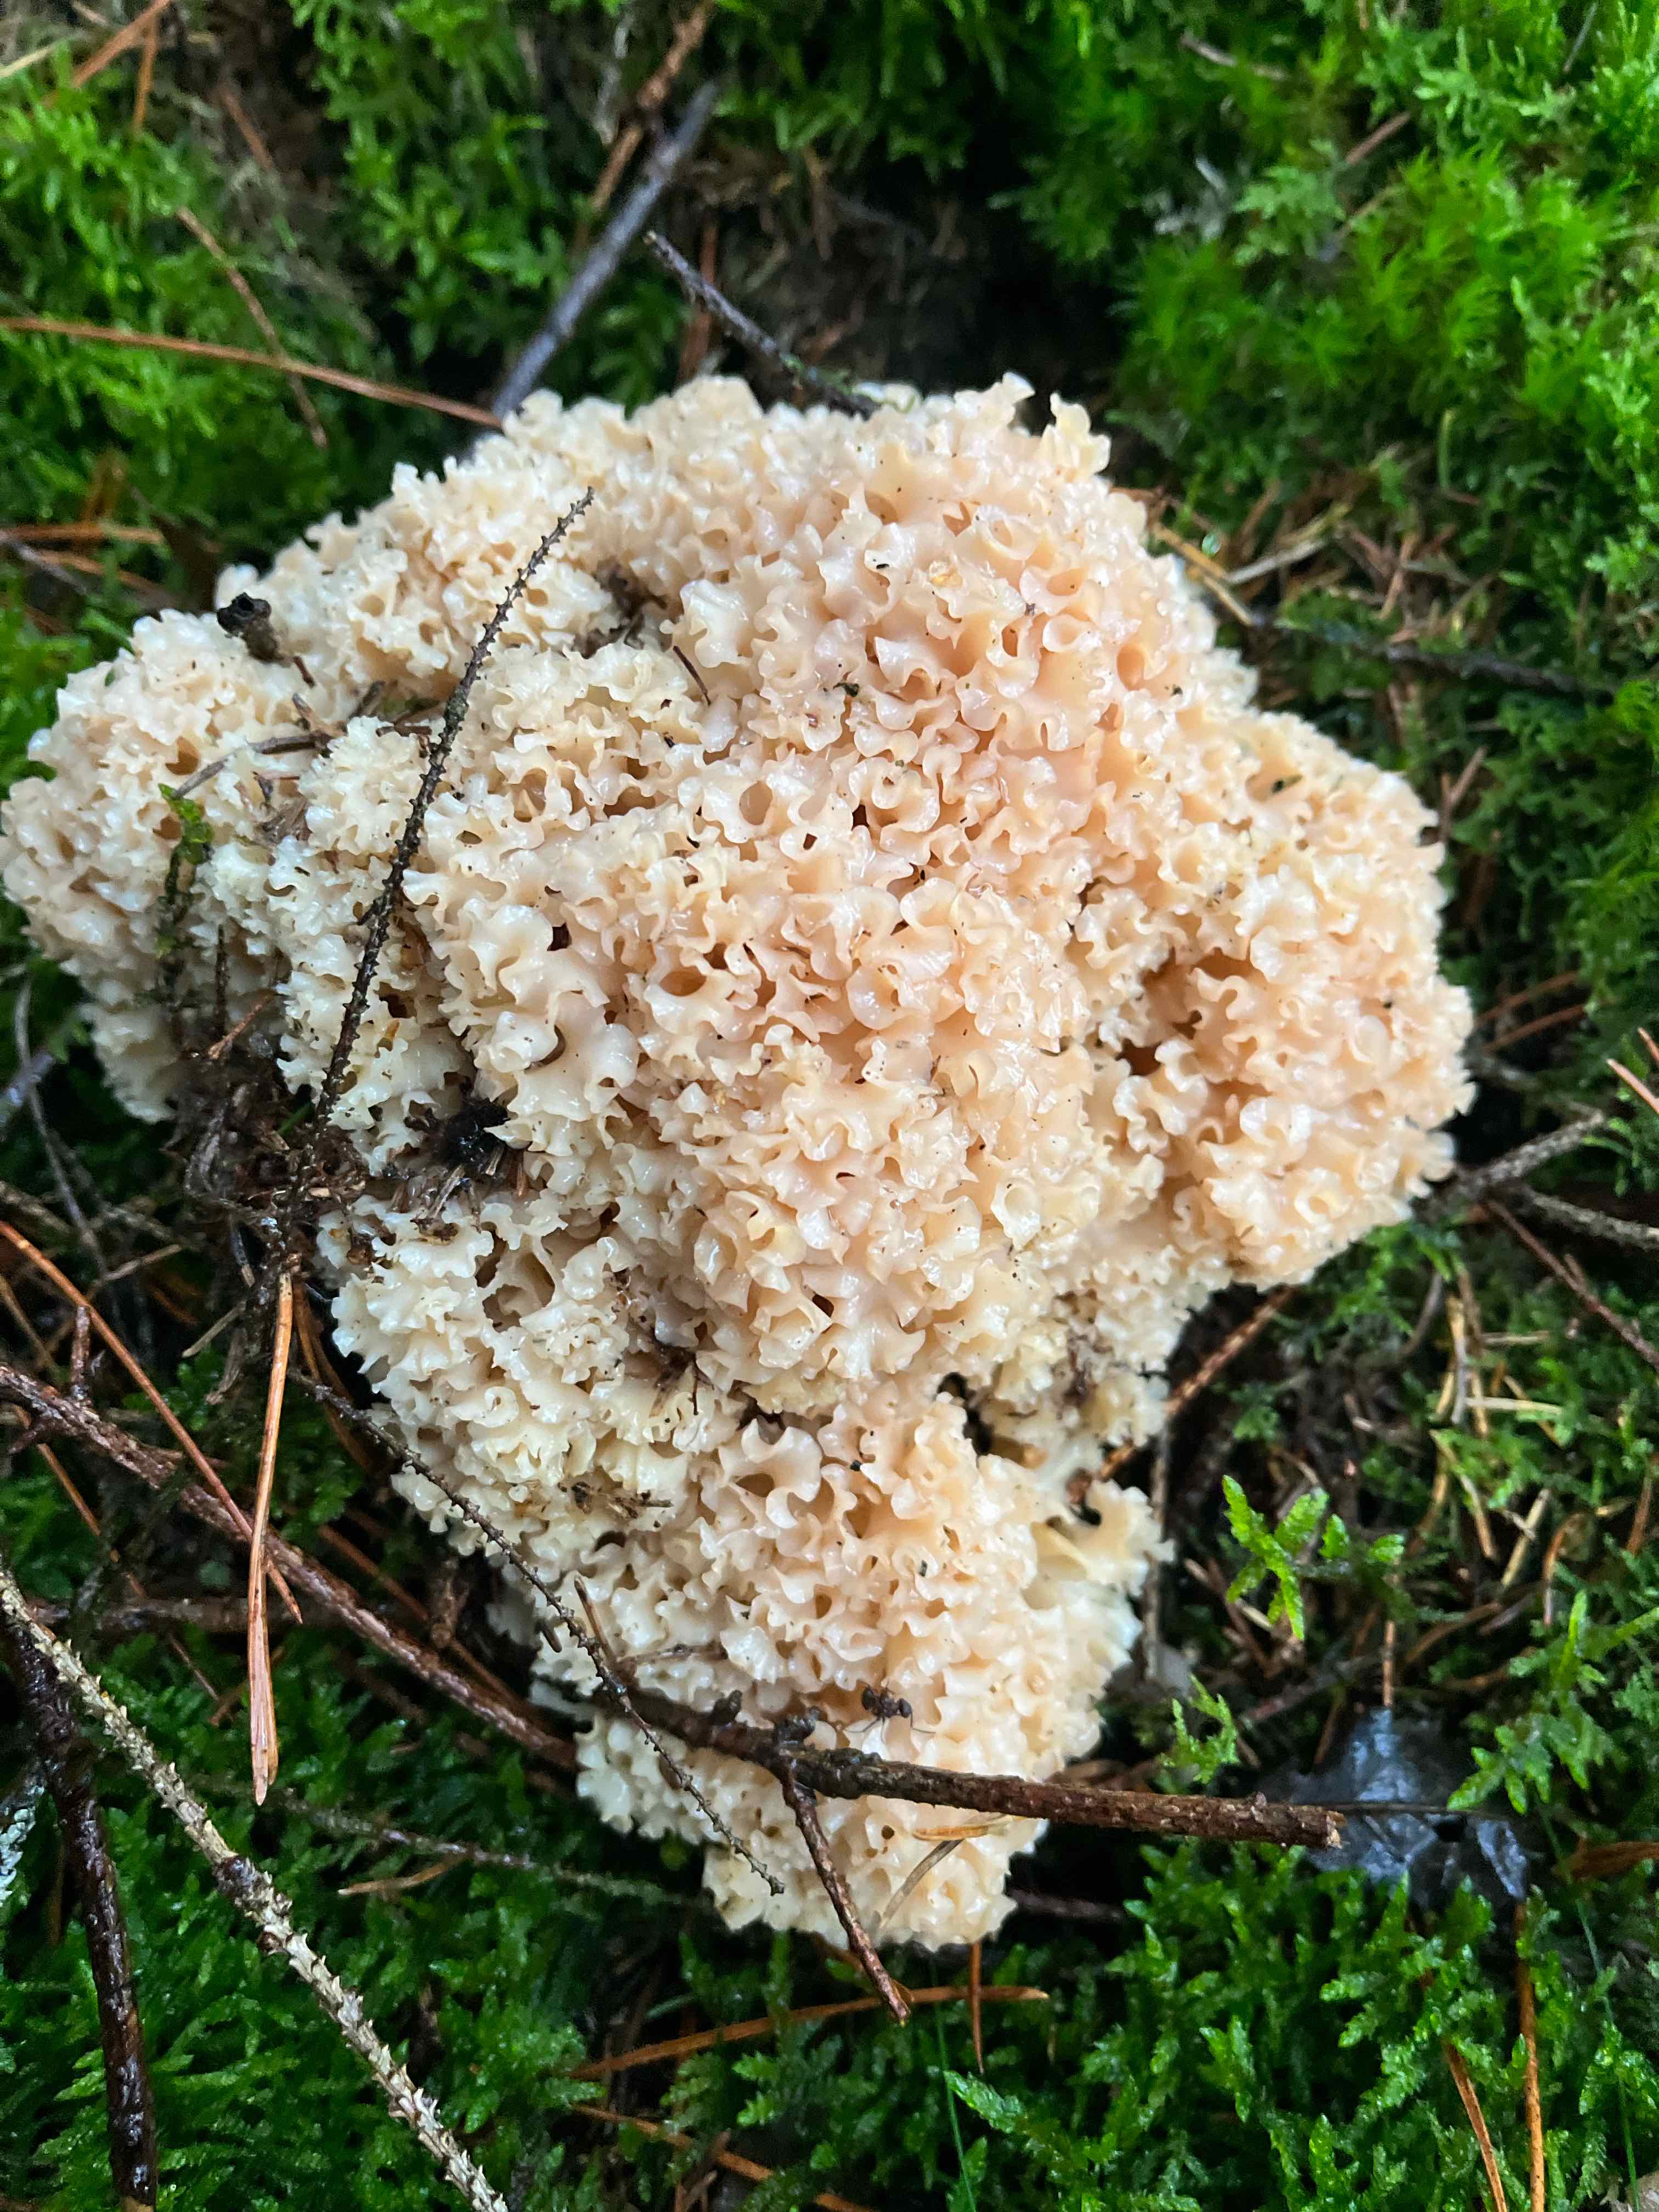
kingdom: Fungi
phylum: Basidiomycota
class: Agaricomycetes
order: Polyporales
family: Sparassidaceae
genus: Sparassis
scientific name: Sparassis crispa
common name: kruset blomkålssvamp
